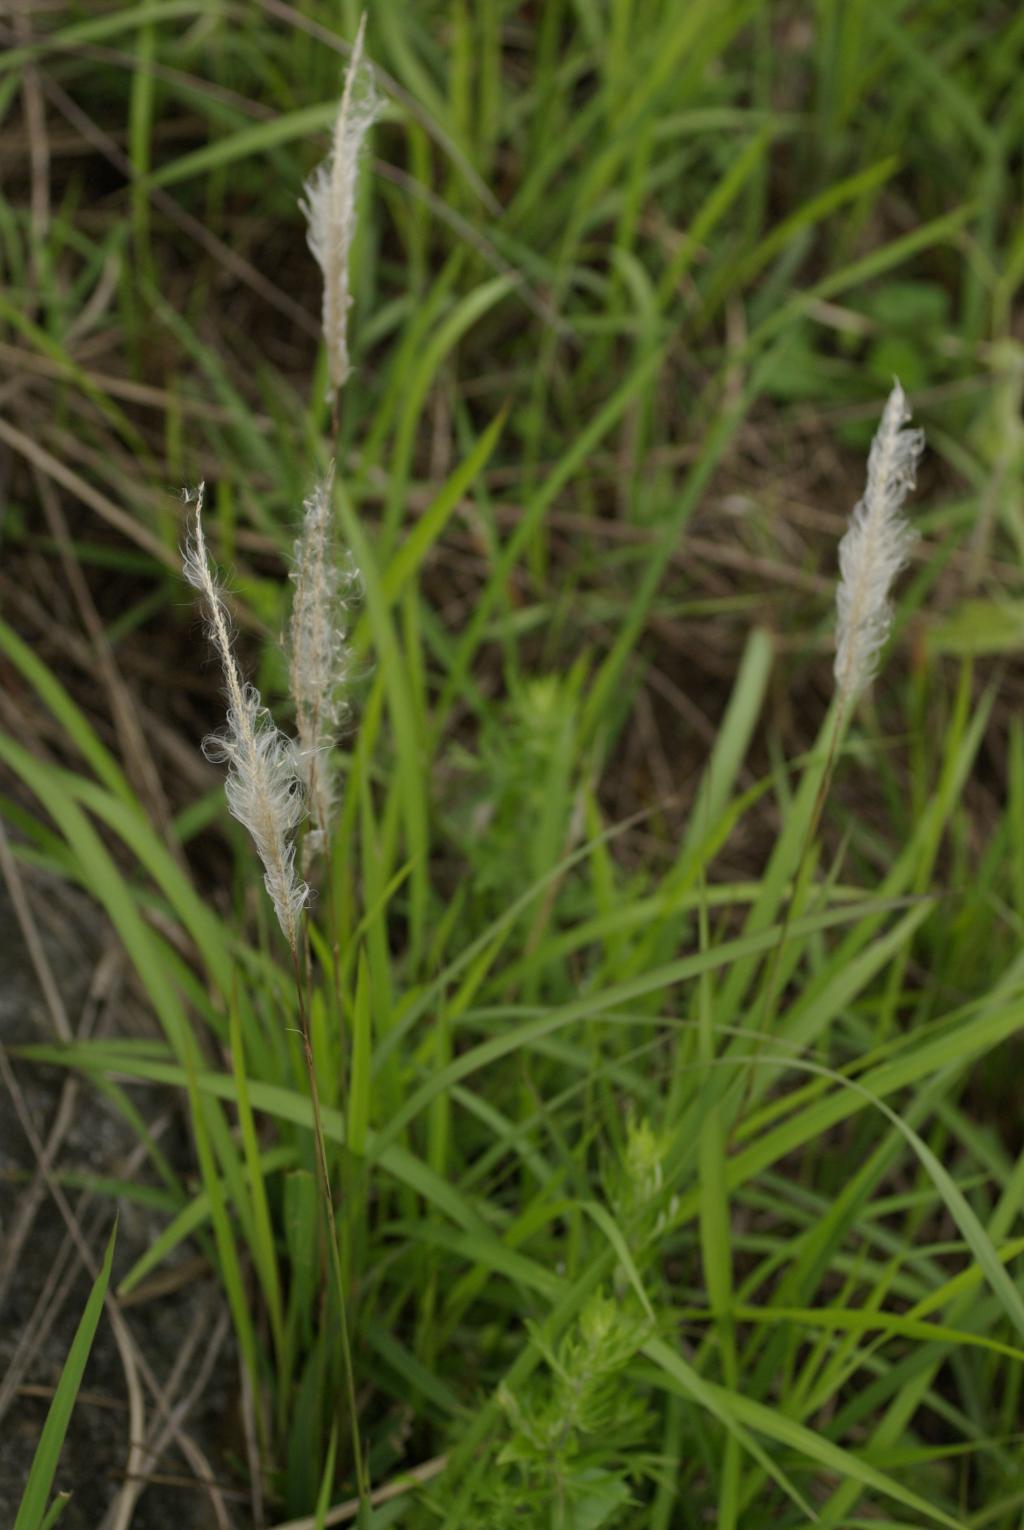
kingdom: Plantae
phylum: Tracheophyta
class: Liliopsida
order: Poales
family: Poaceae
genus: Imperata
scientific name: Imperata cylindrica
